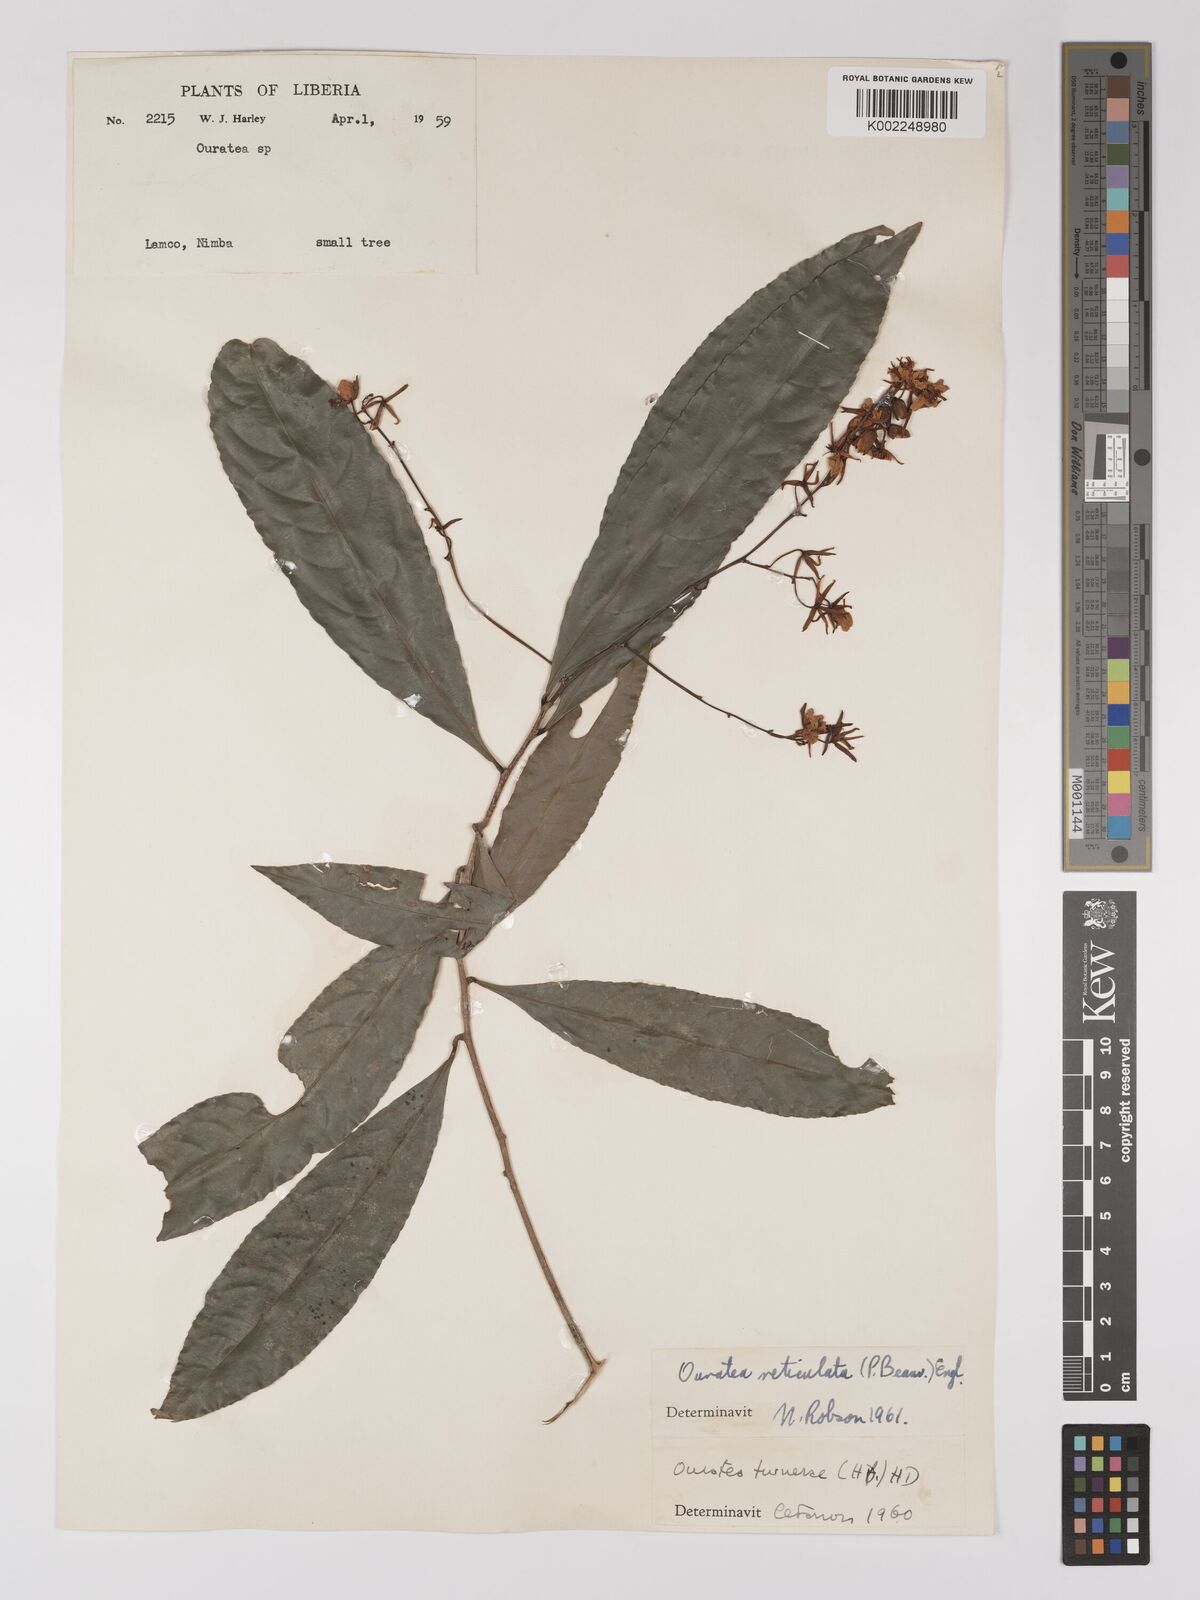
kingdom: Plantae
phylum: Tracheophyta
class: Magnoliopsida
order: Malpighiales
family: Ochnaceae
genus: Campylospermum
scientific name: Campylospermum reticulatum
